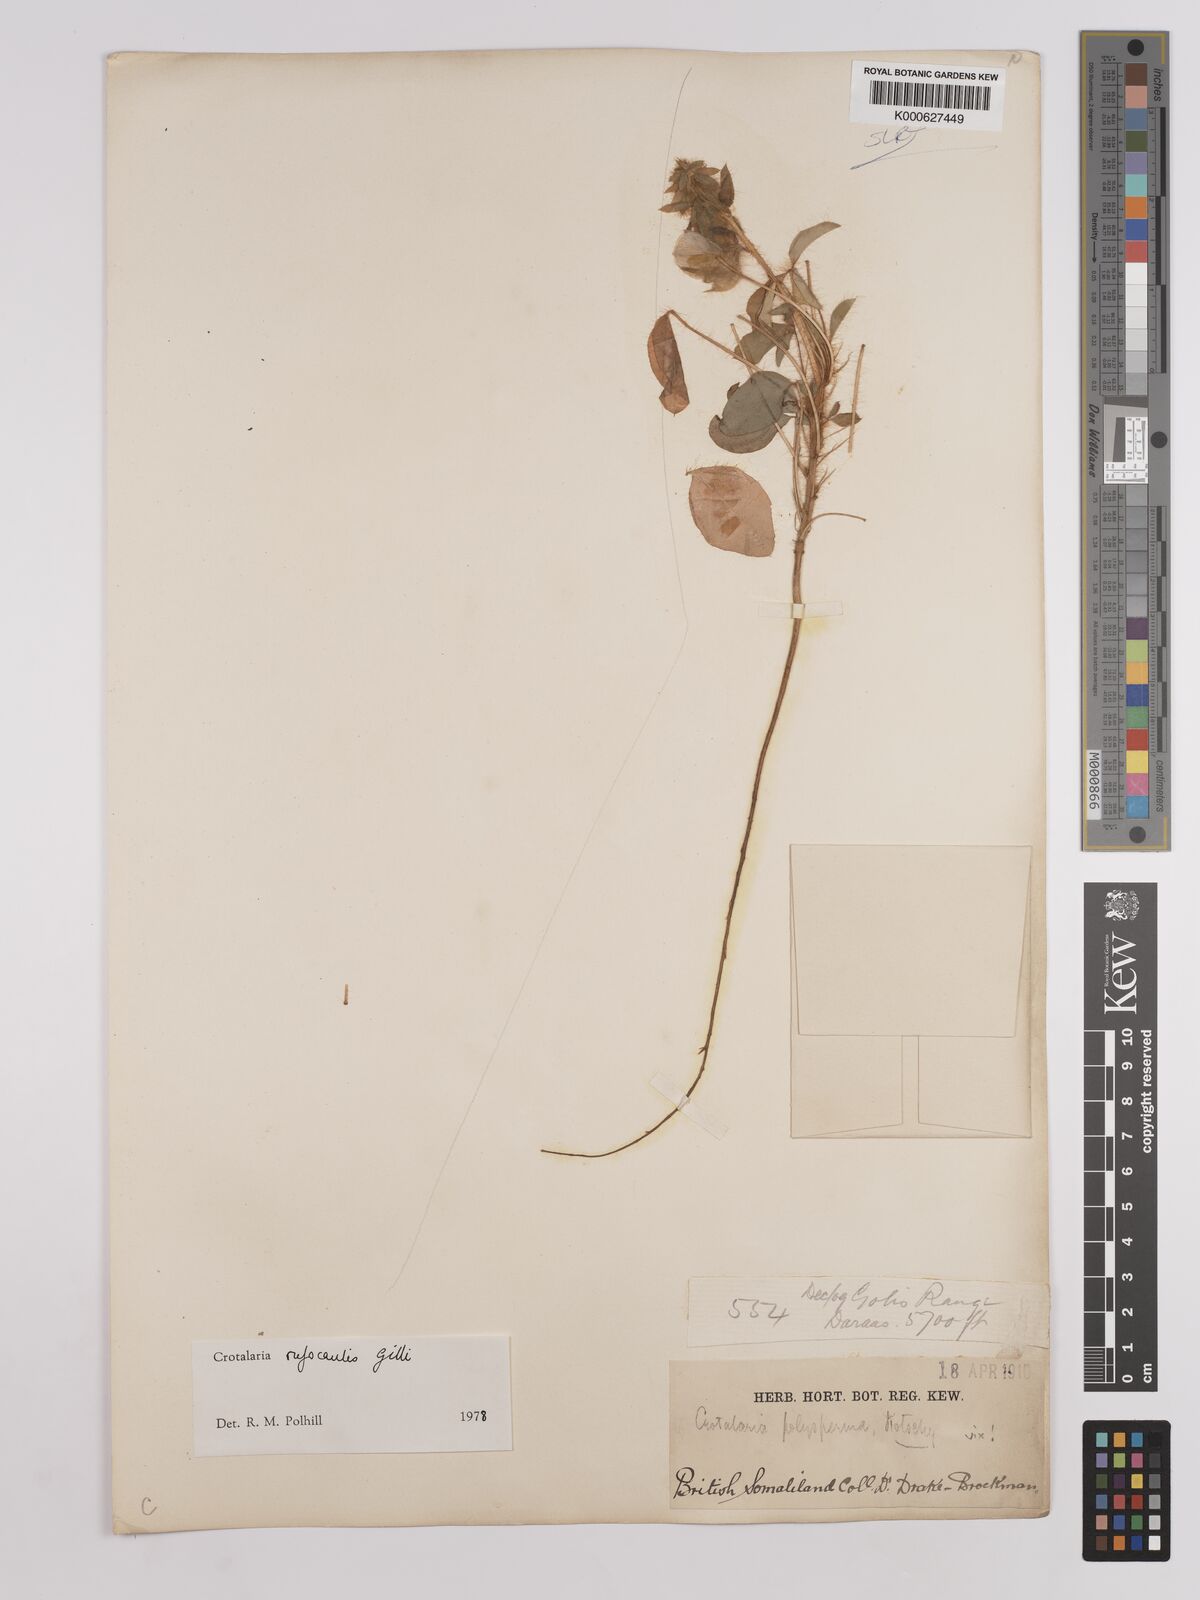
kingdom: Plantae
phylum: Tracheophyta
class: Magnoliopsida
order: Fabales
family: Fabaceae
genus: Crotalaria
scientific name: Crotalaria rufocaulis
